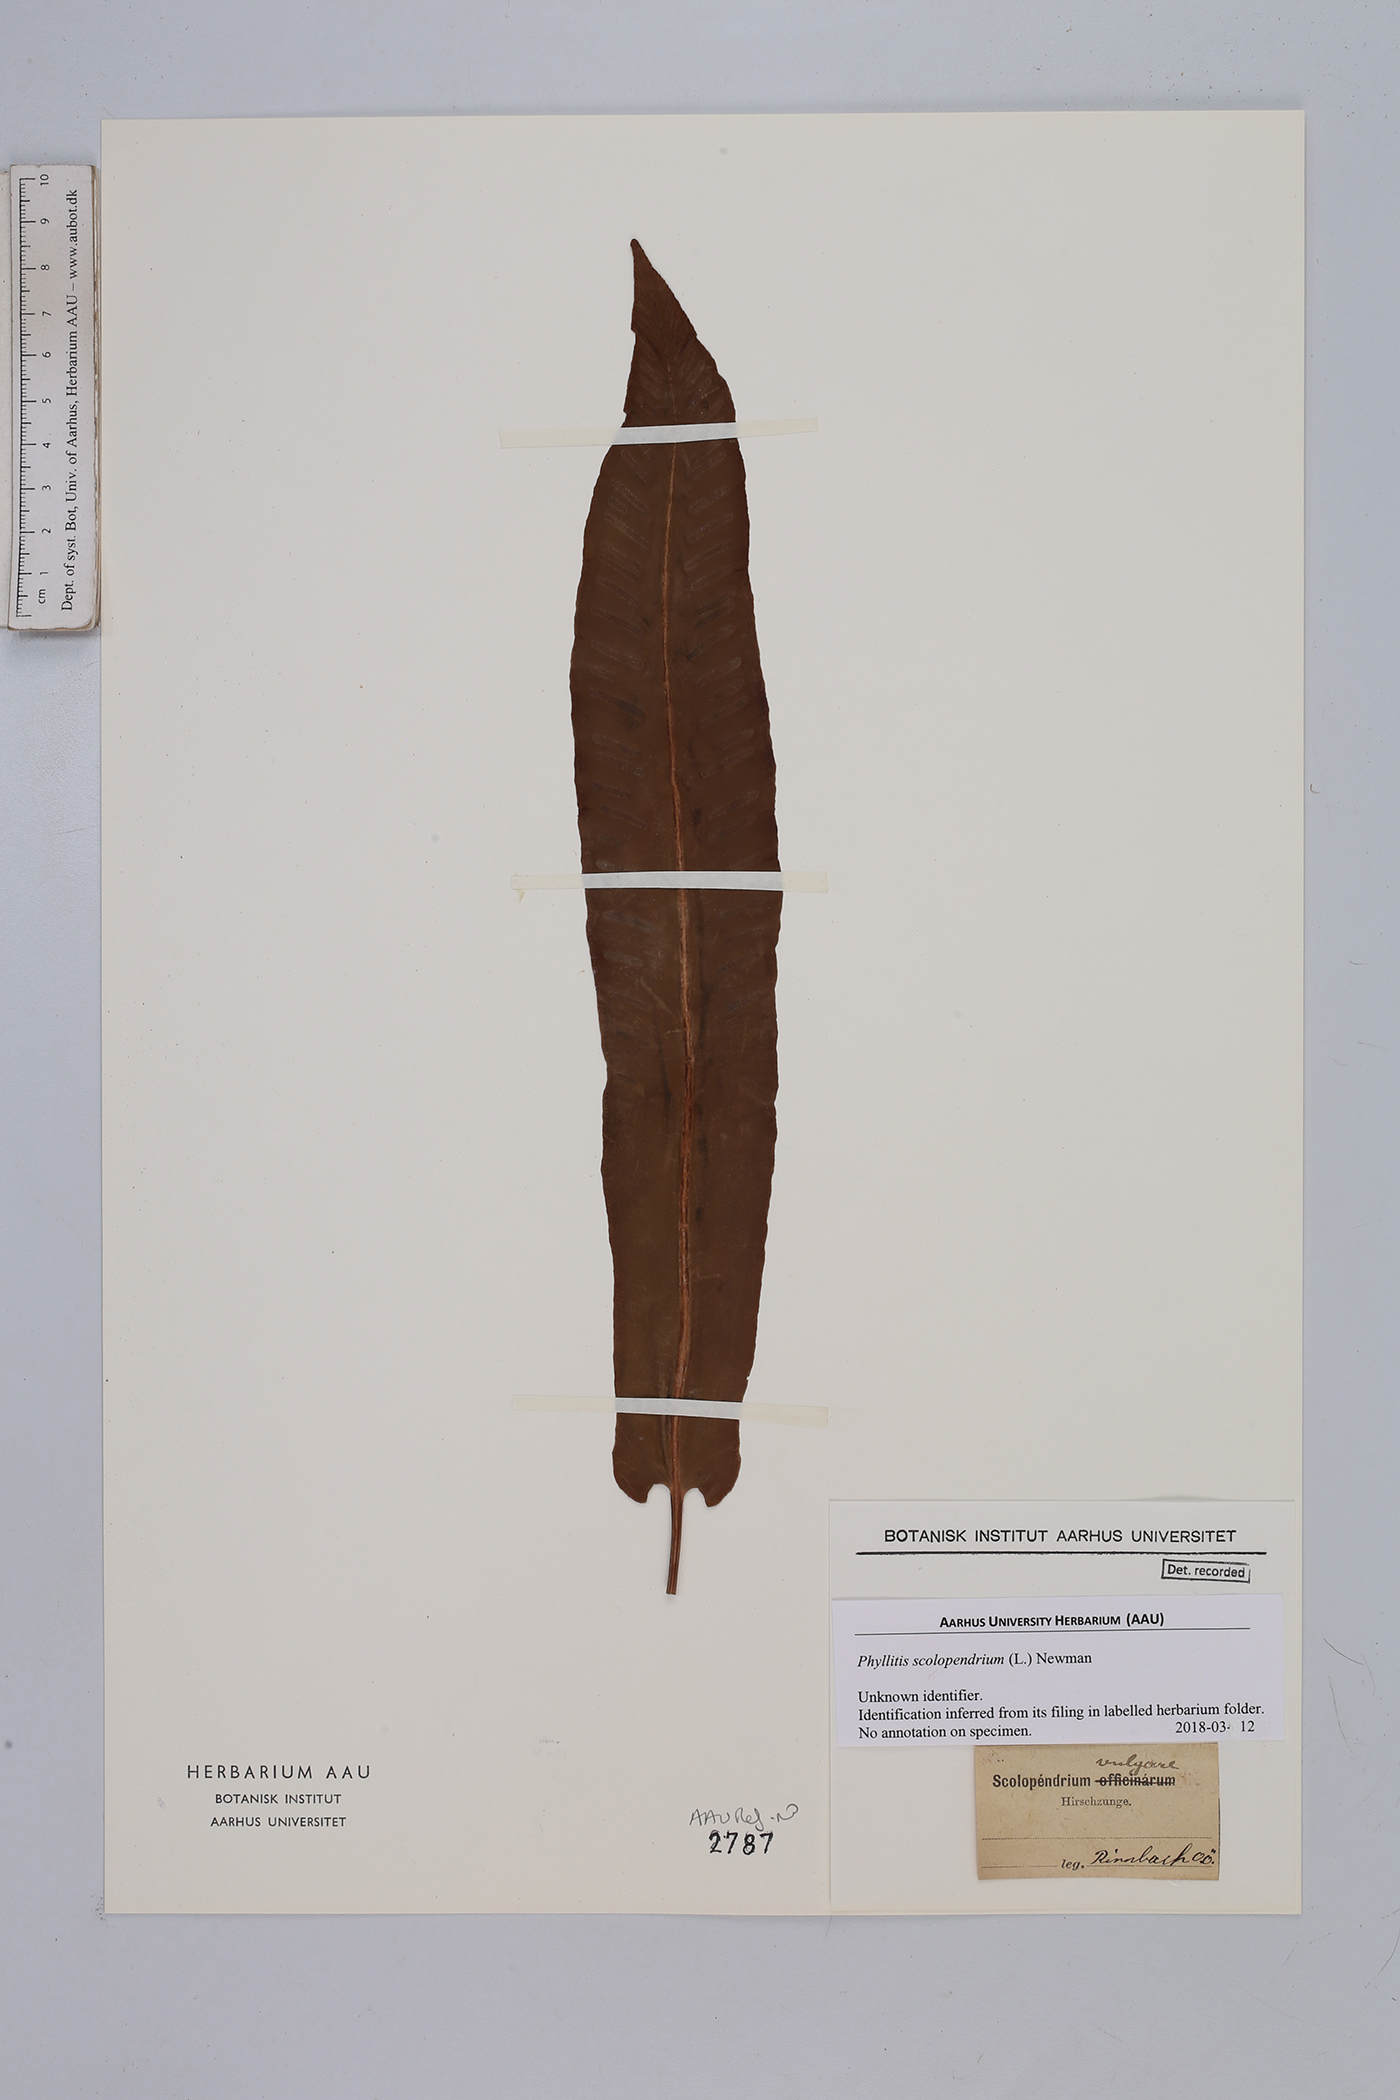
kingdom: Plantae
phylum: Tracheophyta
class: Polypodiopsida
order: Polypodiales
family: Aspleniaceae
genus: Asplenium
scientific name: Asplenium scolopendrium
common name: Hart's-tongue fern
